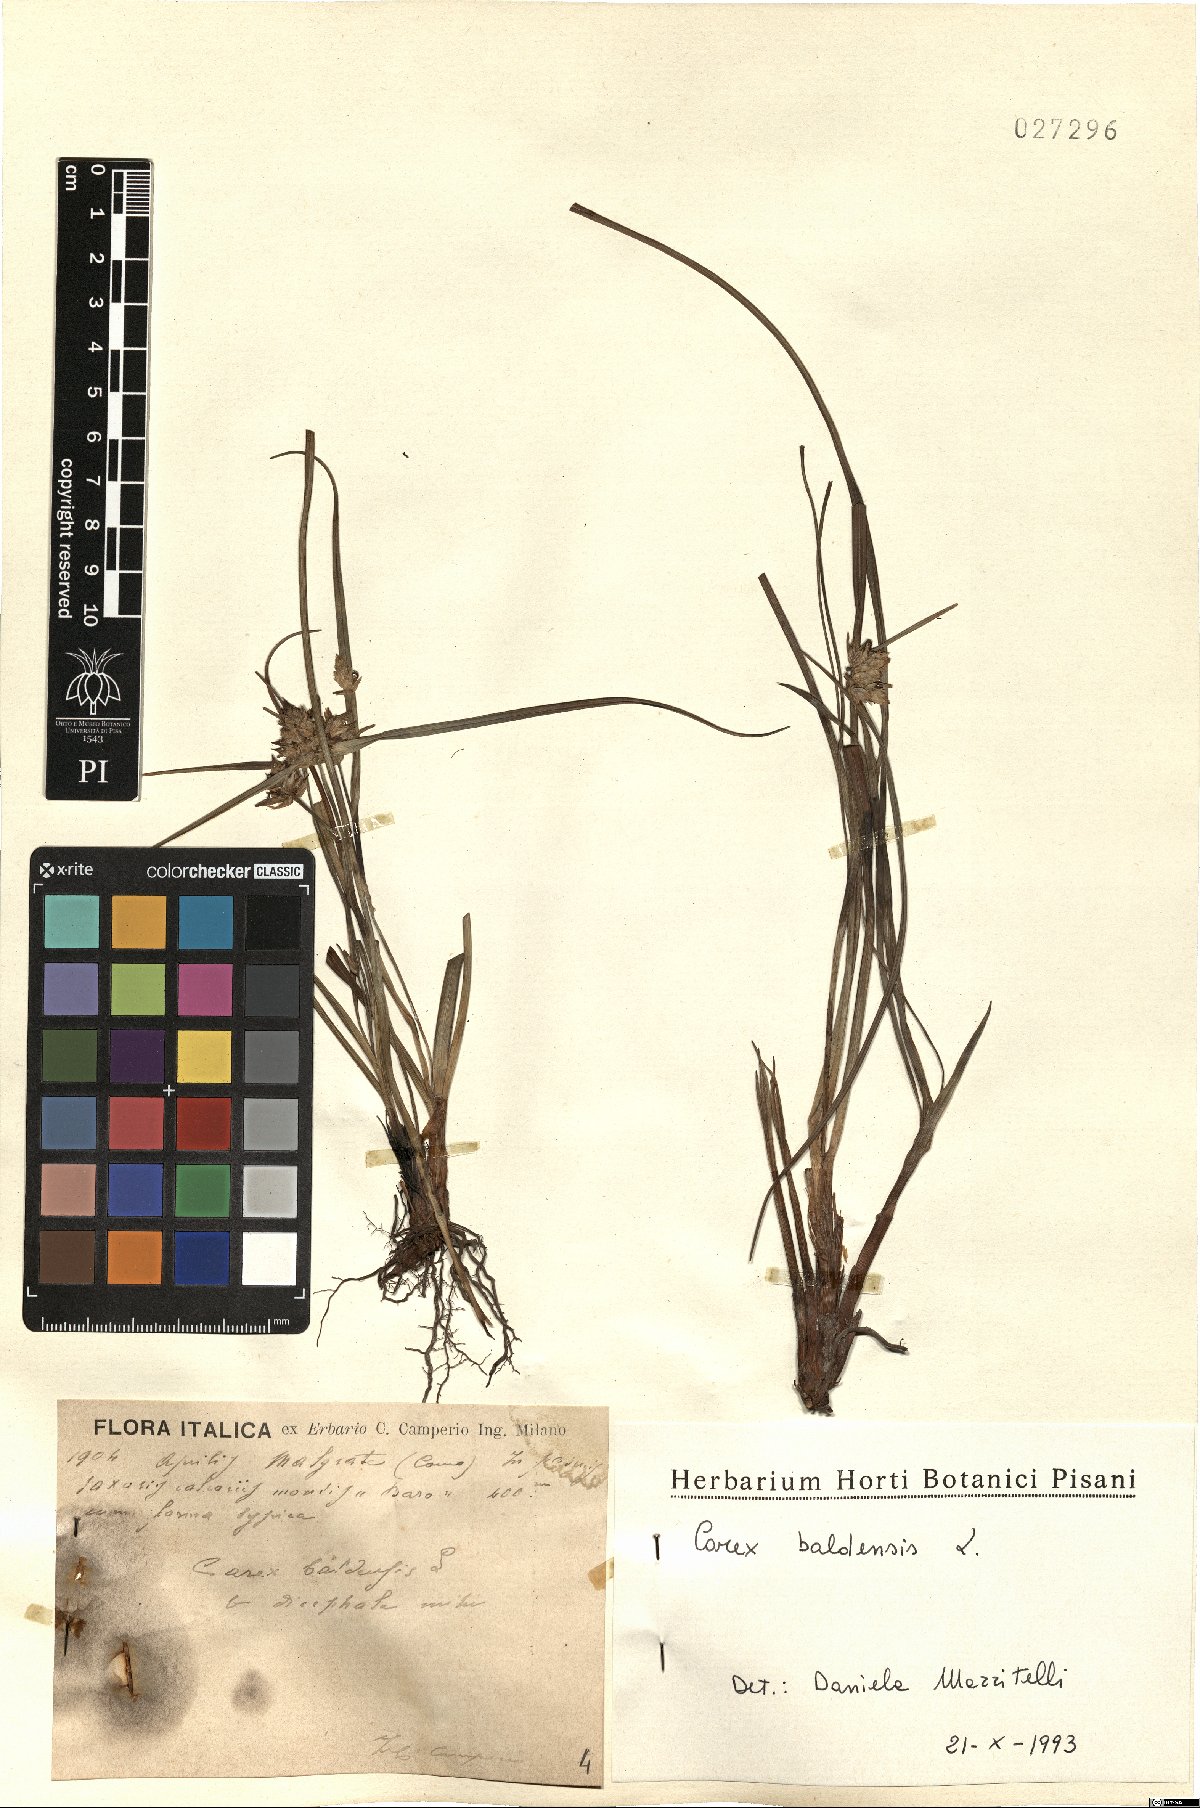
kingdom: Plantae
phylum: Tracheophyta
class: Liliopsida
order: Poales
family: Cyperaceae
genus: Carex
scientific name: Carex baldensis
